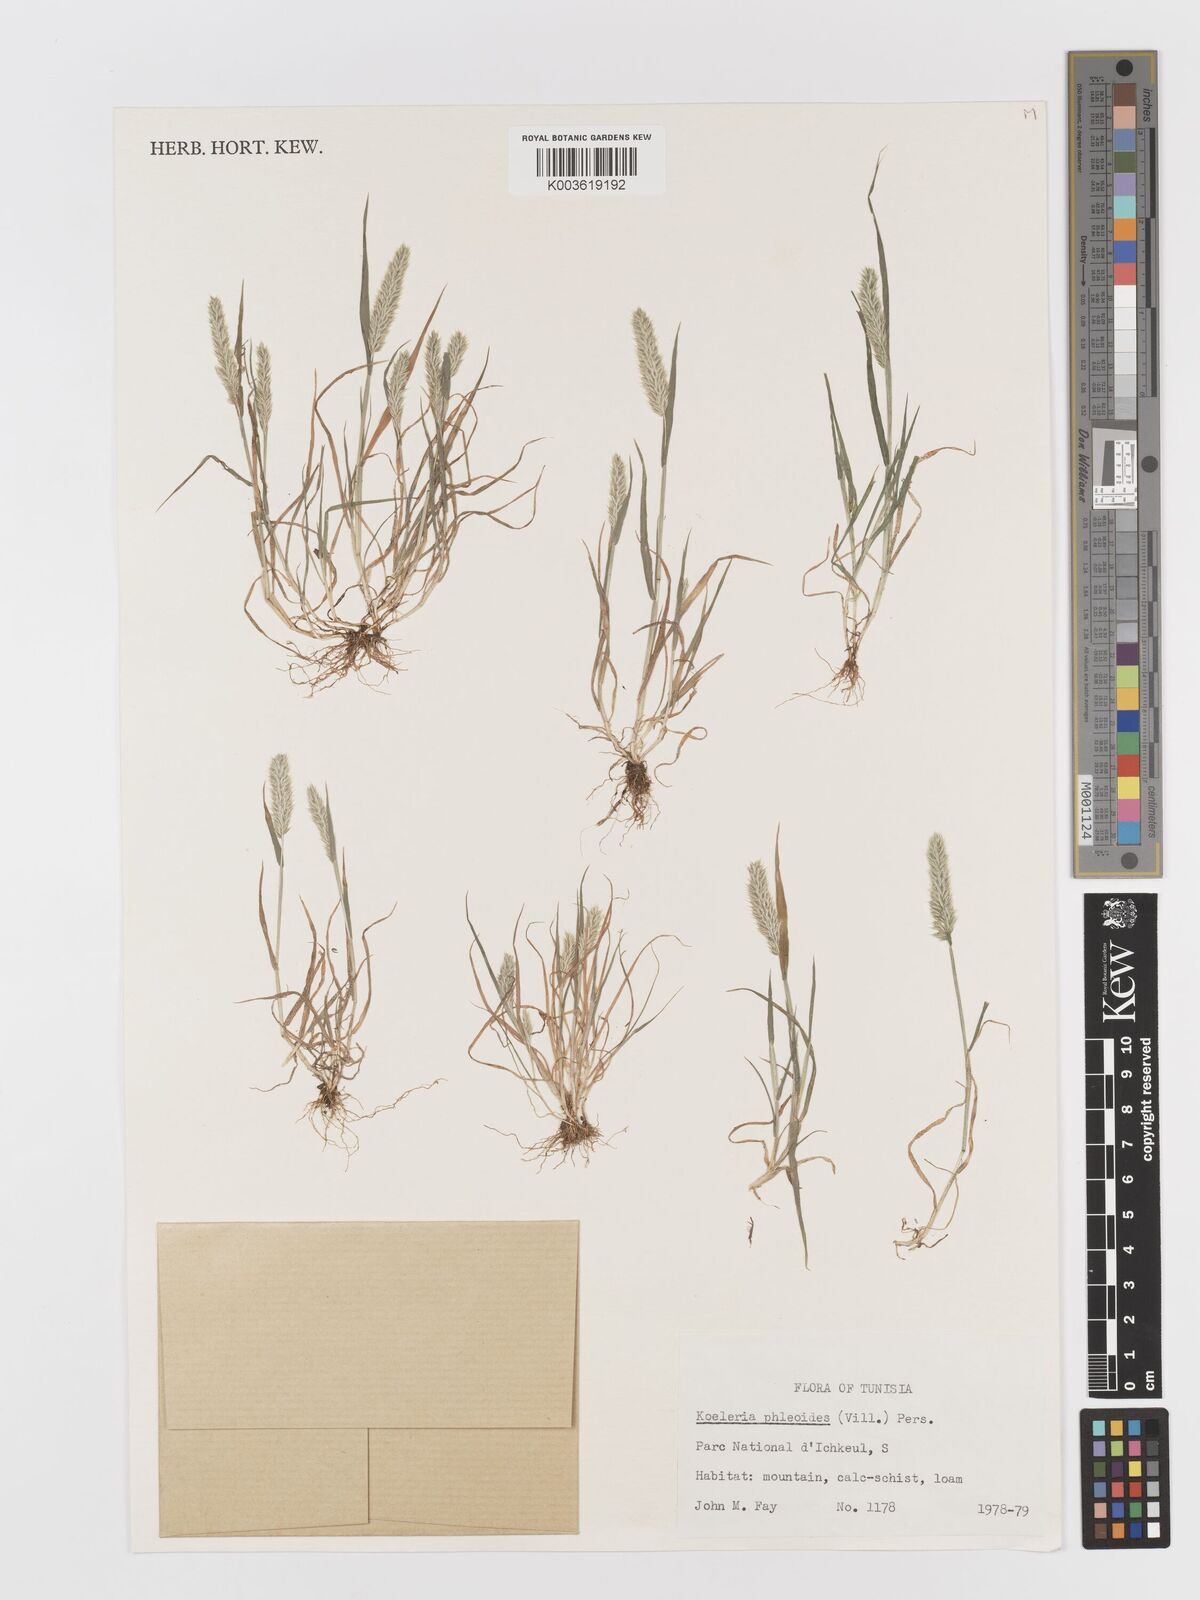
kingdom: Plantae
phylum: Tracheophyta
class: Liliopsida
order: Poales
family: Poaceae
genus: Rostraria
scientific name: Rostraria cristata
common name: Mediterranean hair-grass
